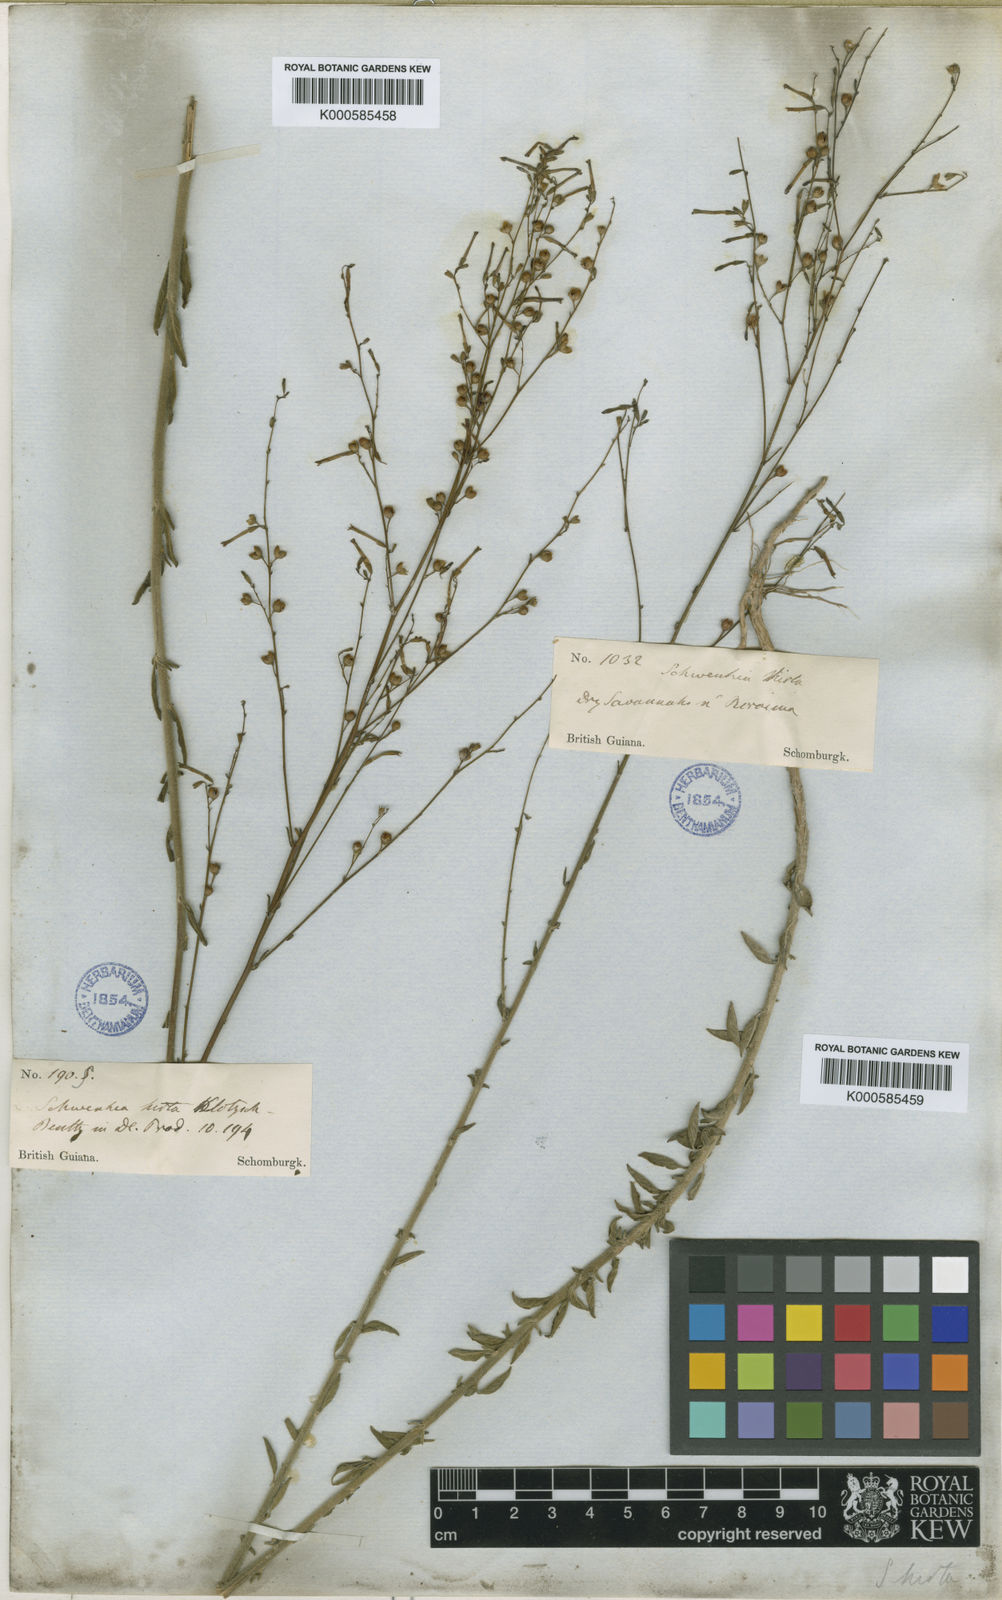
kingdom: Plantae
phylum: Tracheophyta
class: Magnoliopsida
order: Solanales
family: Solanaceae
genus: Schwenckia
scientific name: Schwenckia americana
